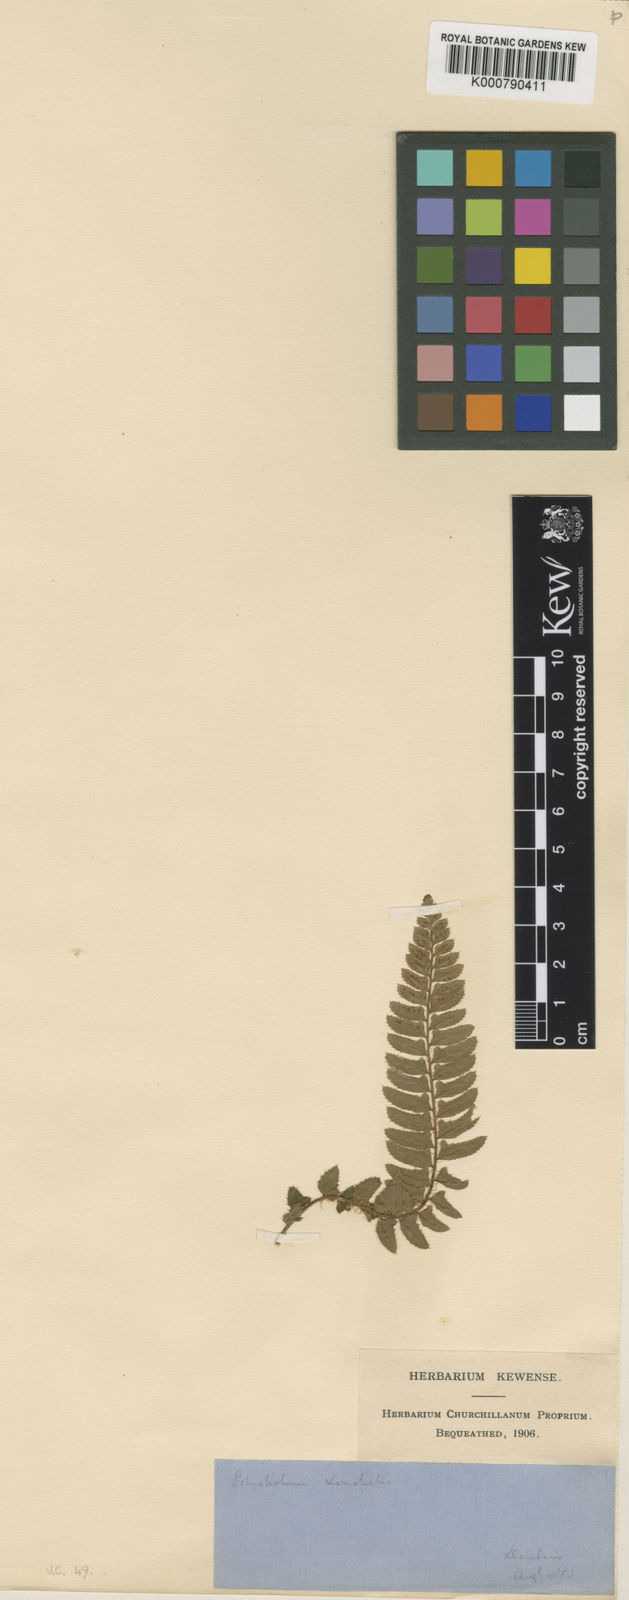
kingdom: Plantae
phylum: Tracheophyta
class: Polypodiopsida
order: Polypodiales
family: Dryopteridaceae
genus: Polystichum
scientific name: Polystichum
